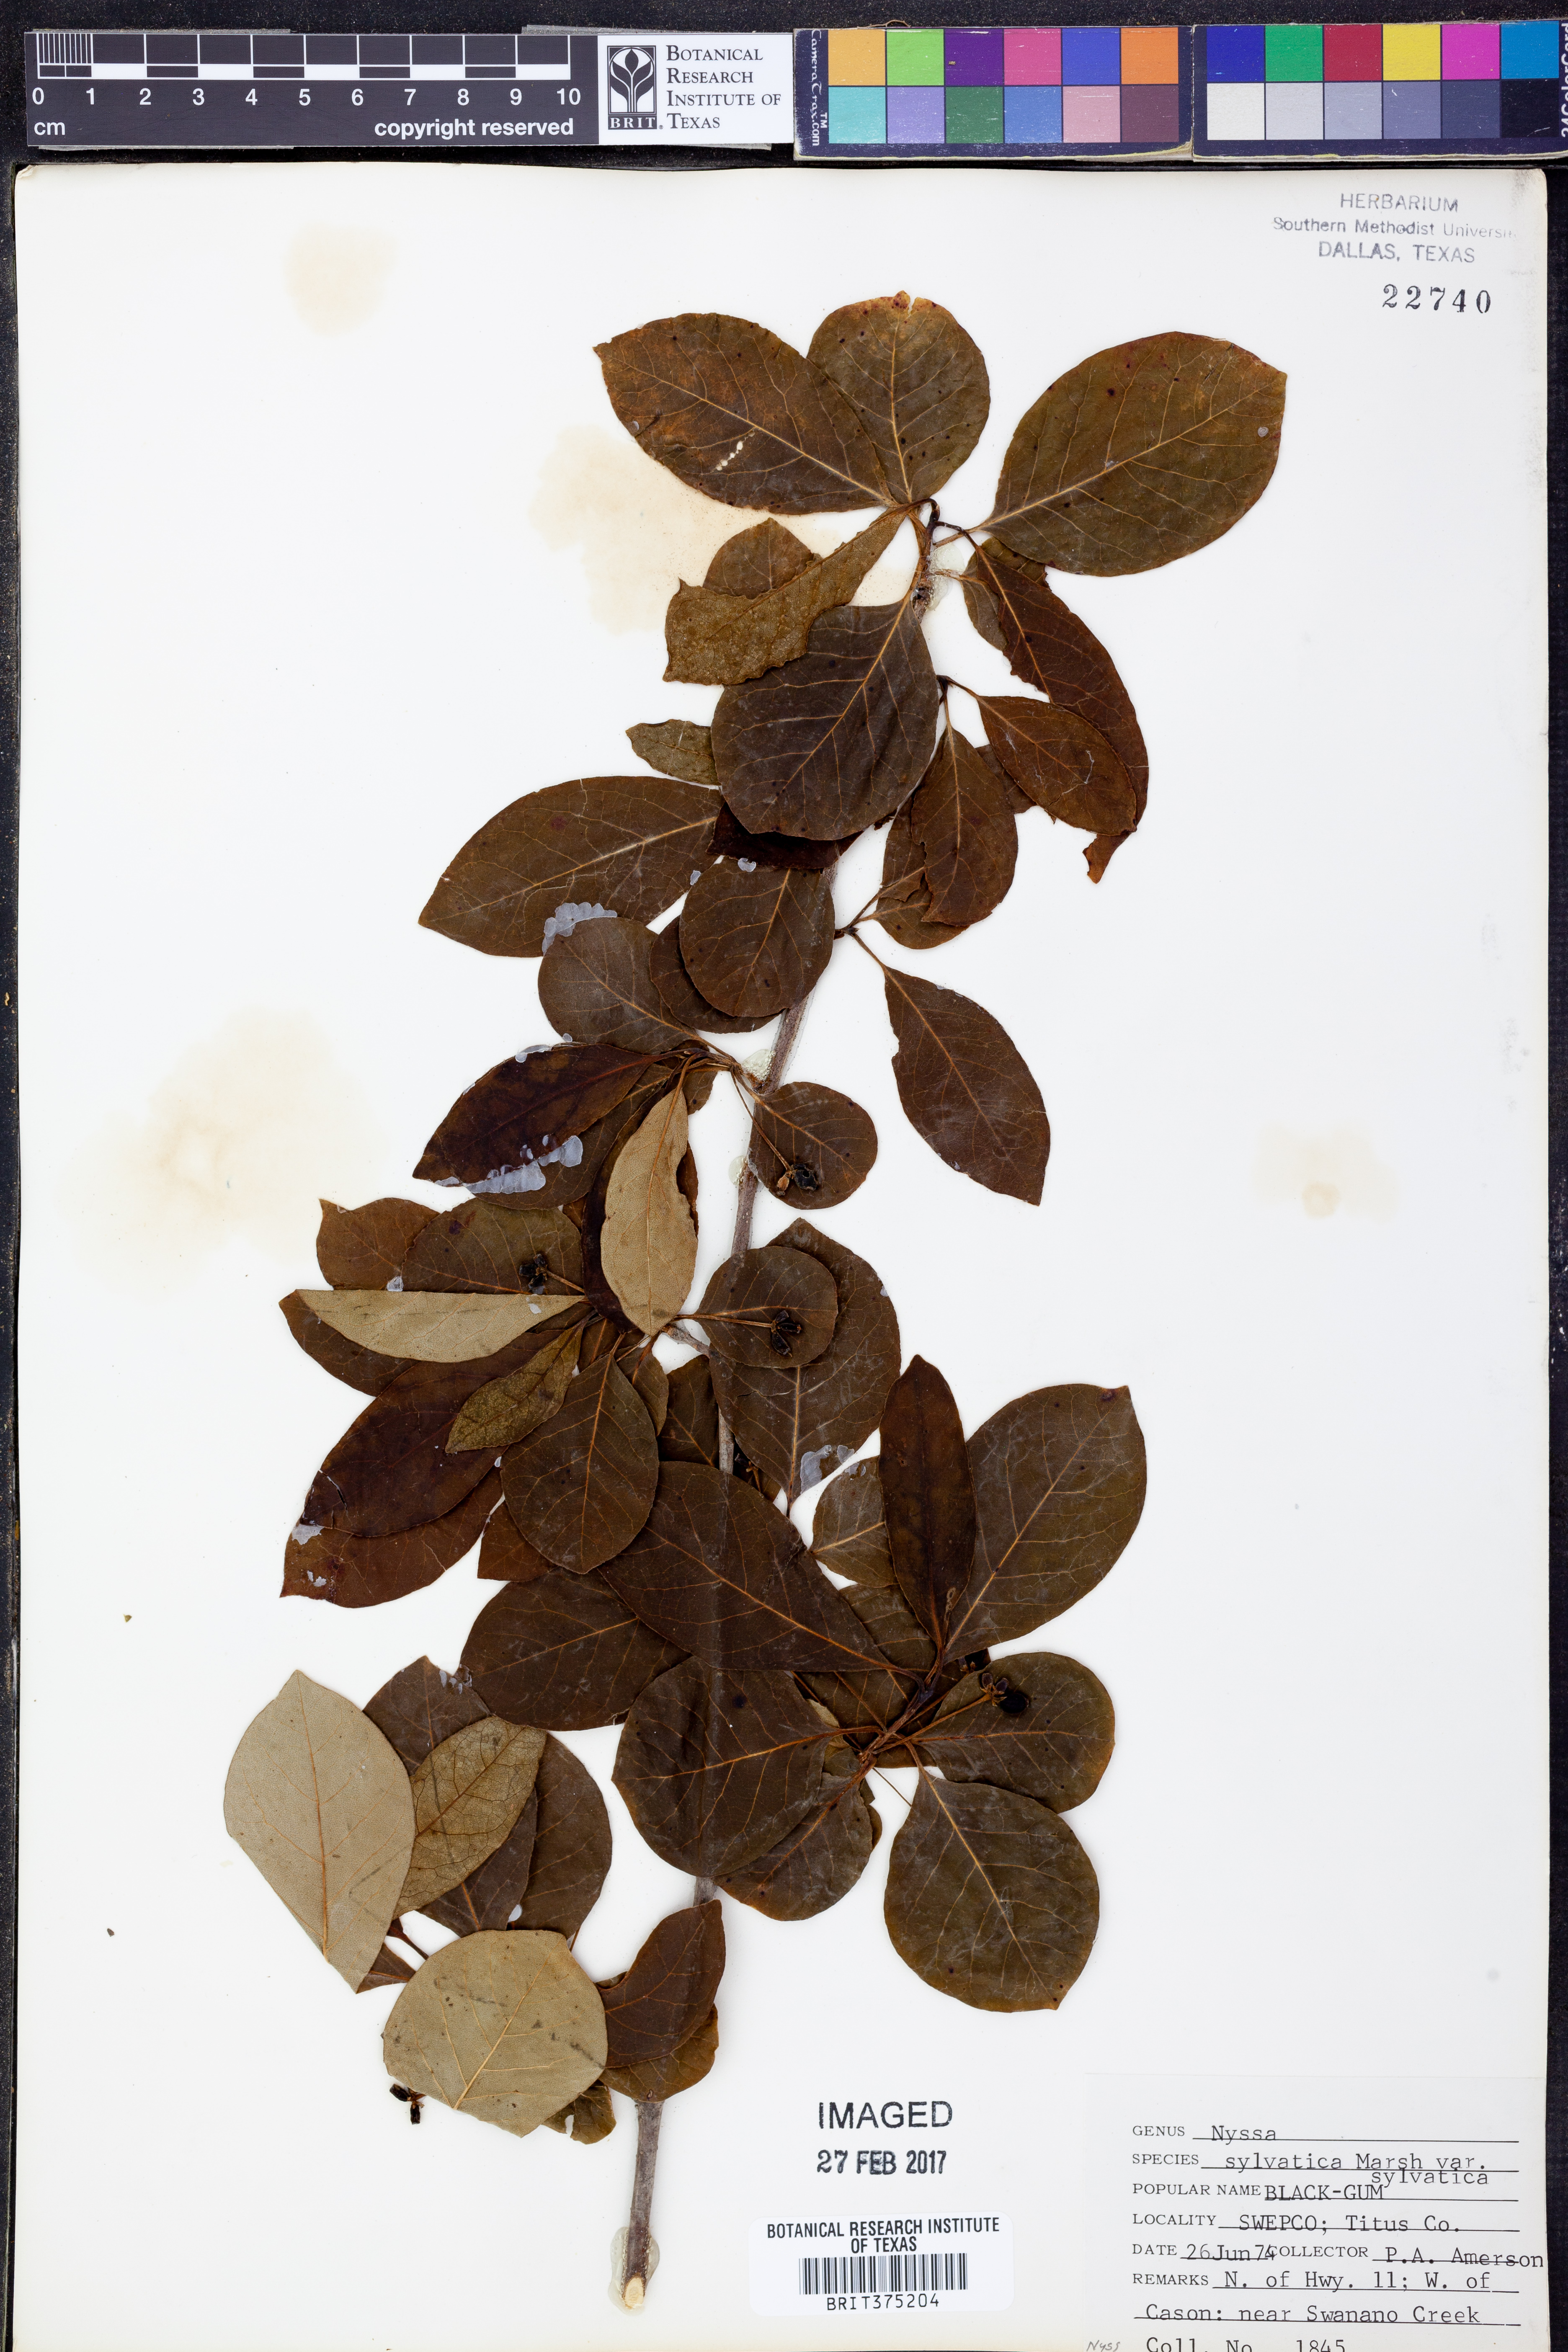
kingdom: Plantae
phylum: Tracheophyta
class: Magnoliopsida
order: Cornales
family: Nyssaceae
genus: Nyssa
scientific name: Nyssa sylvatica
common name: Black tupelo
